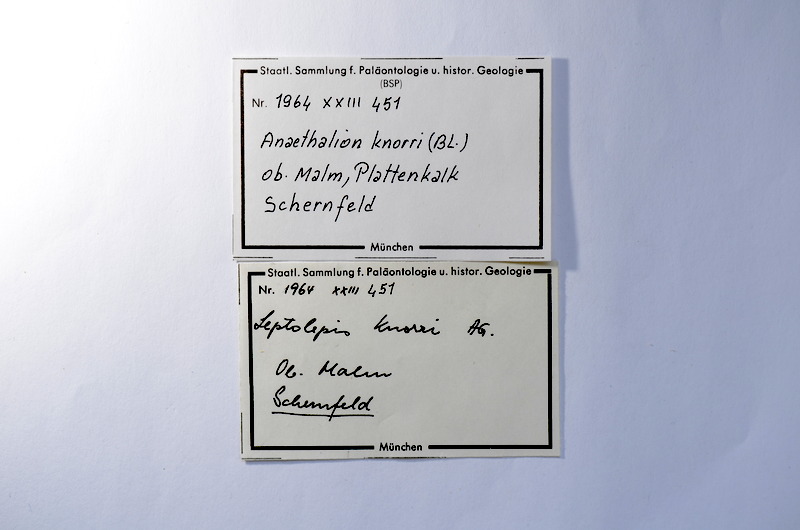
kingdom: Animalia
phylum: Chordata
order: Elopiformes
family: Anaethalionidae
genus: Anaethalion
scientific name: Anaethalion knorri
